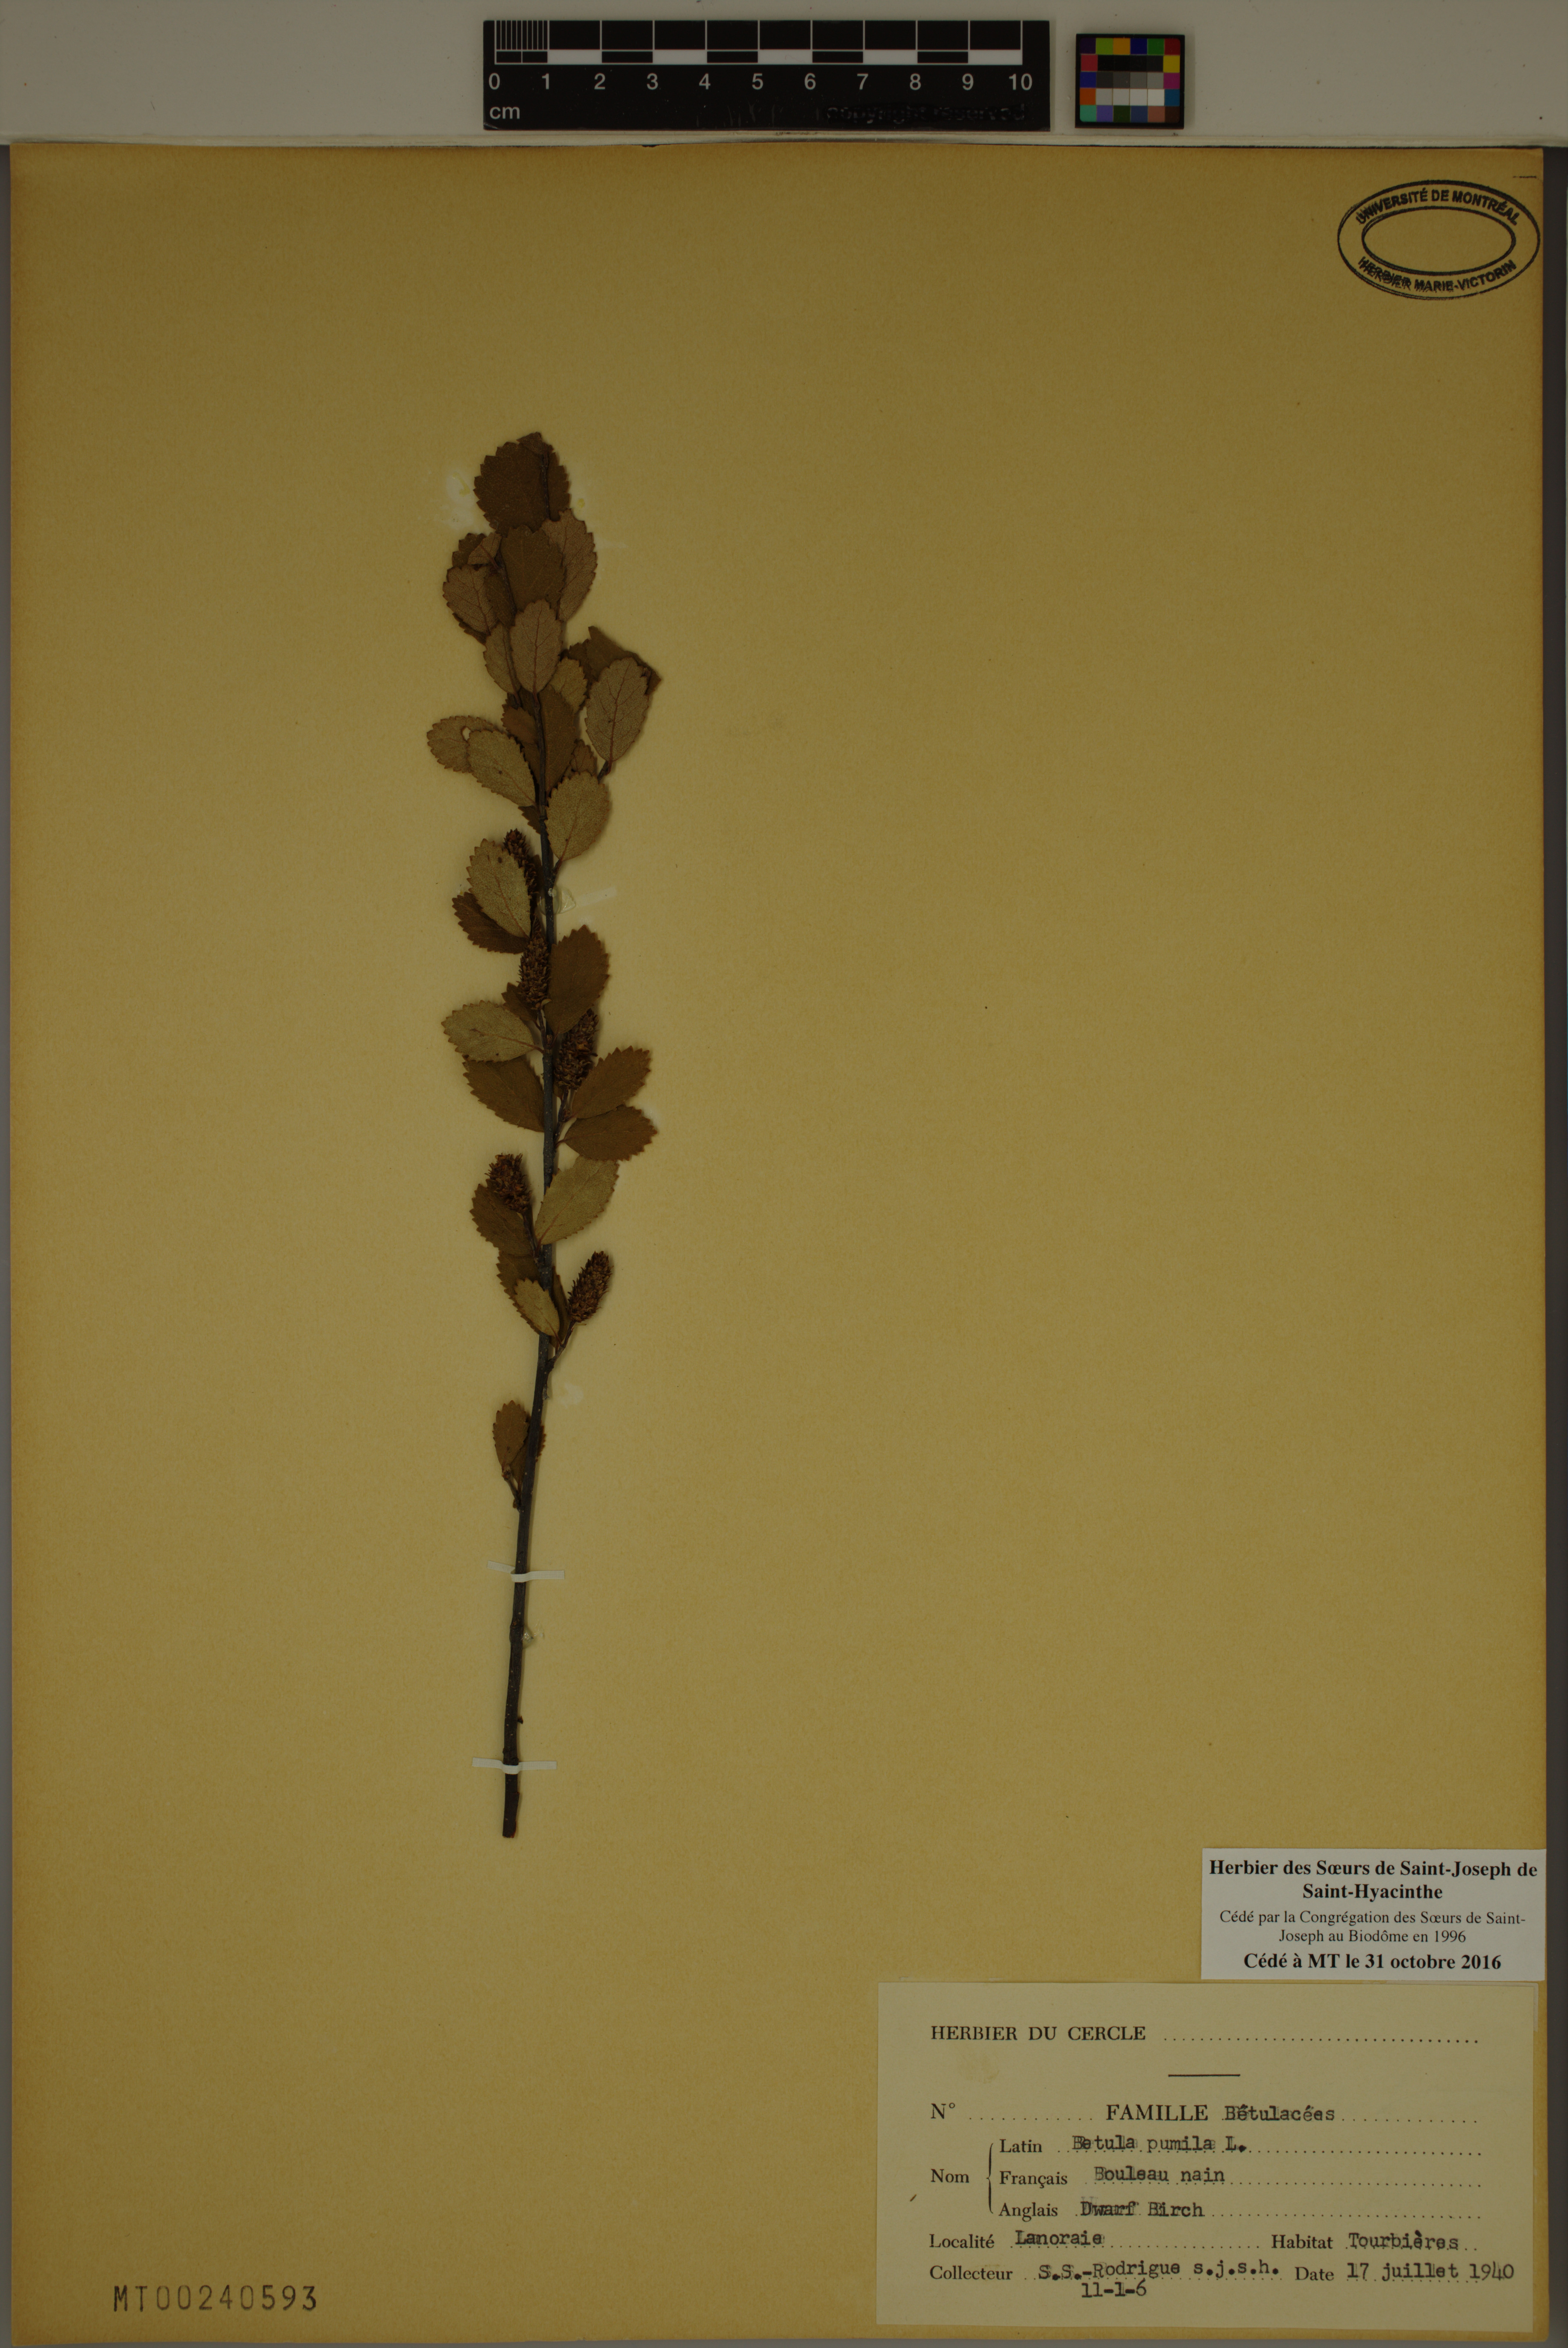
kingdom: Plantae
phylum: Tracheophyta
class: Magnoliopsida
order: Fagales
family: Betulaceae
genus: Betula
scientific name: Betula pumila
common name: Bog birch
